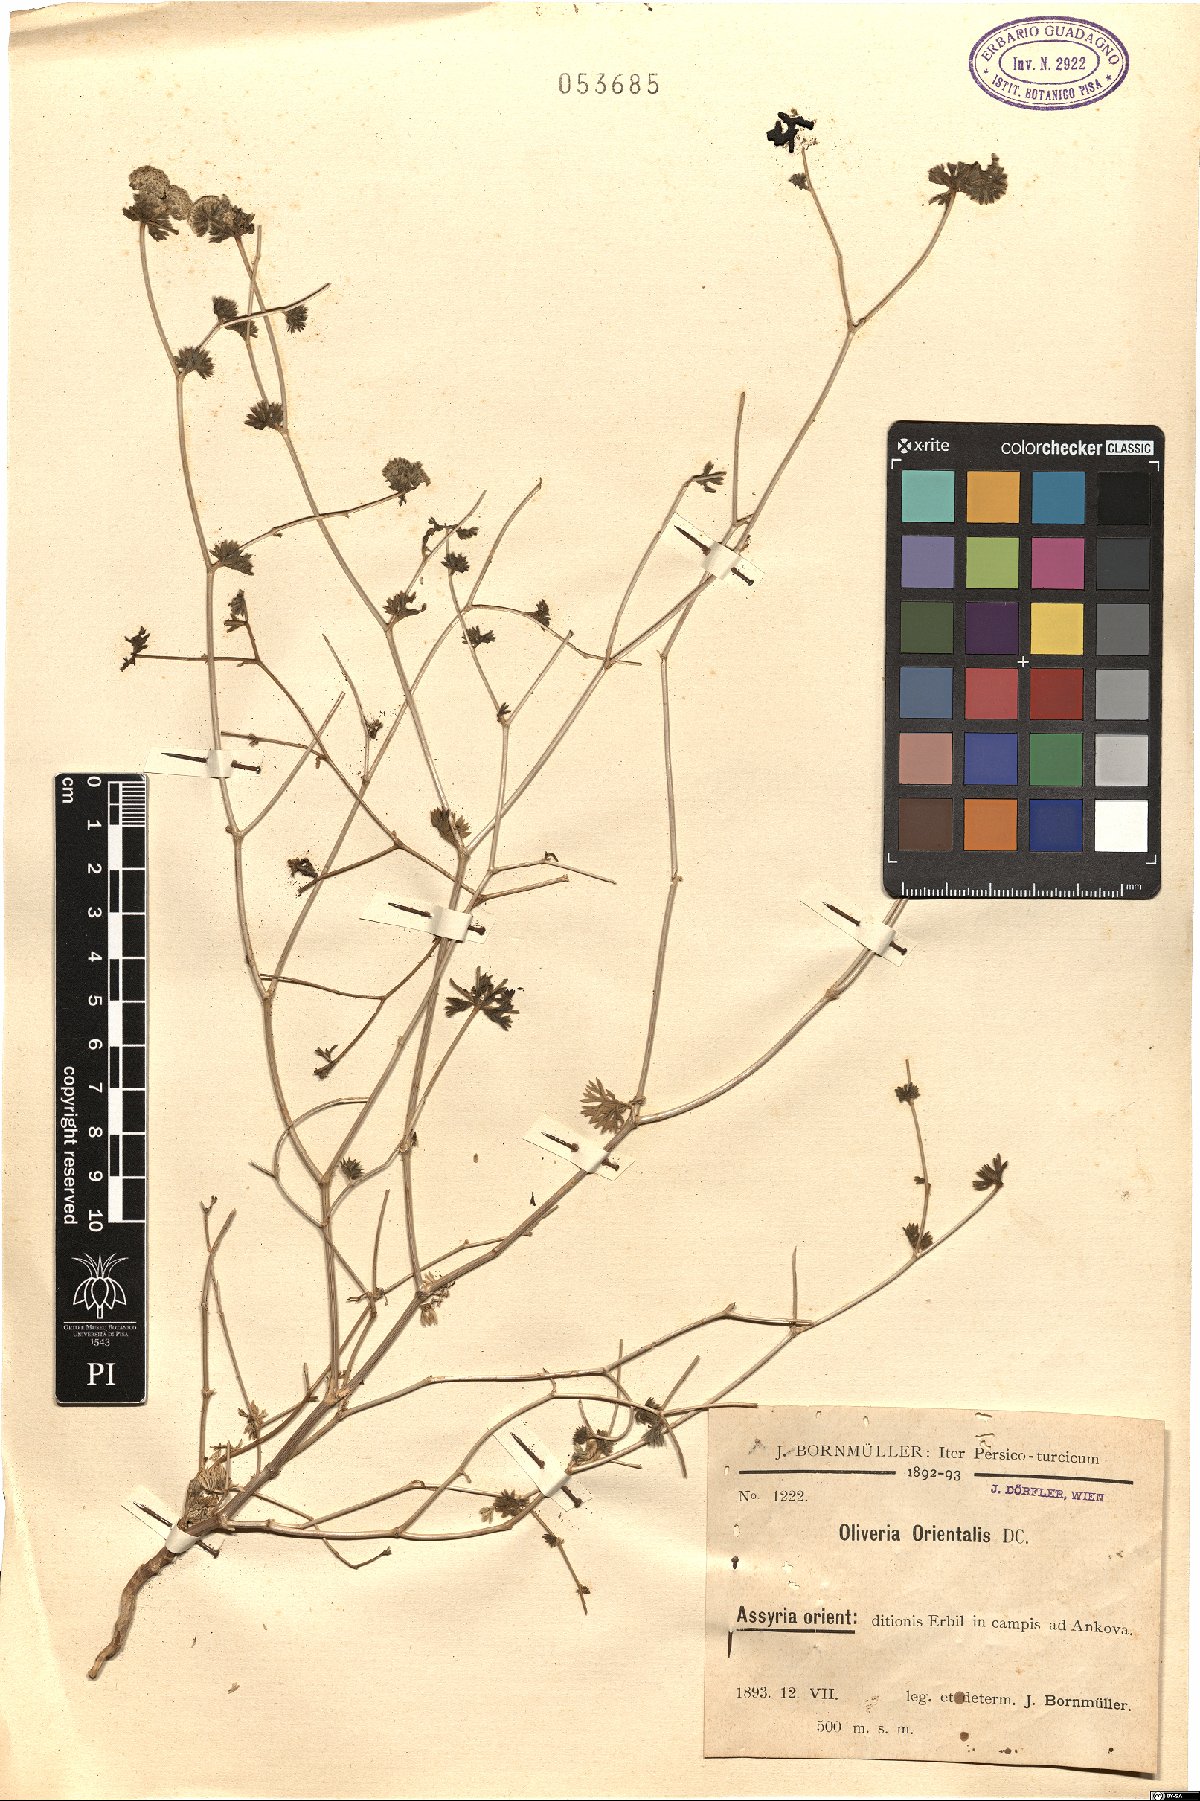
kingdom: Plantae
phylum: Tracheophyta
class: Magnoliopsida
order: Apiales
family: Apiaceae
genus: Oliveria
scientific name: Oliveria decumbens
